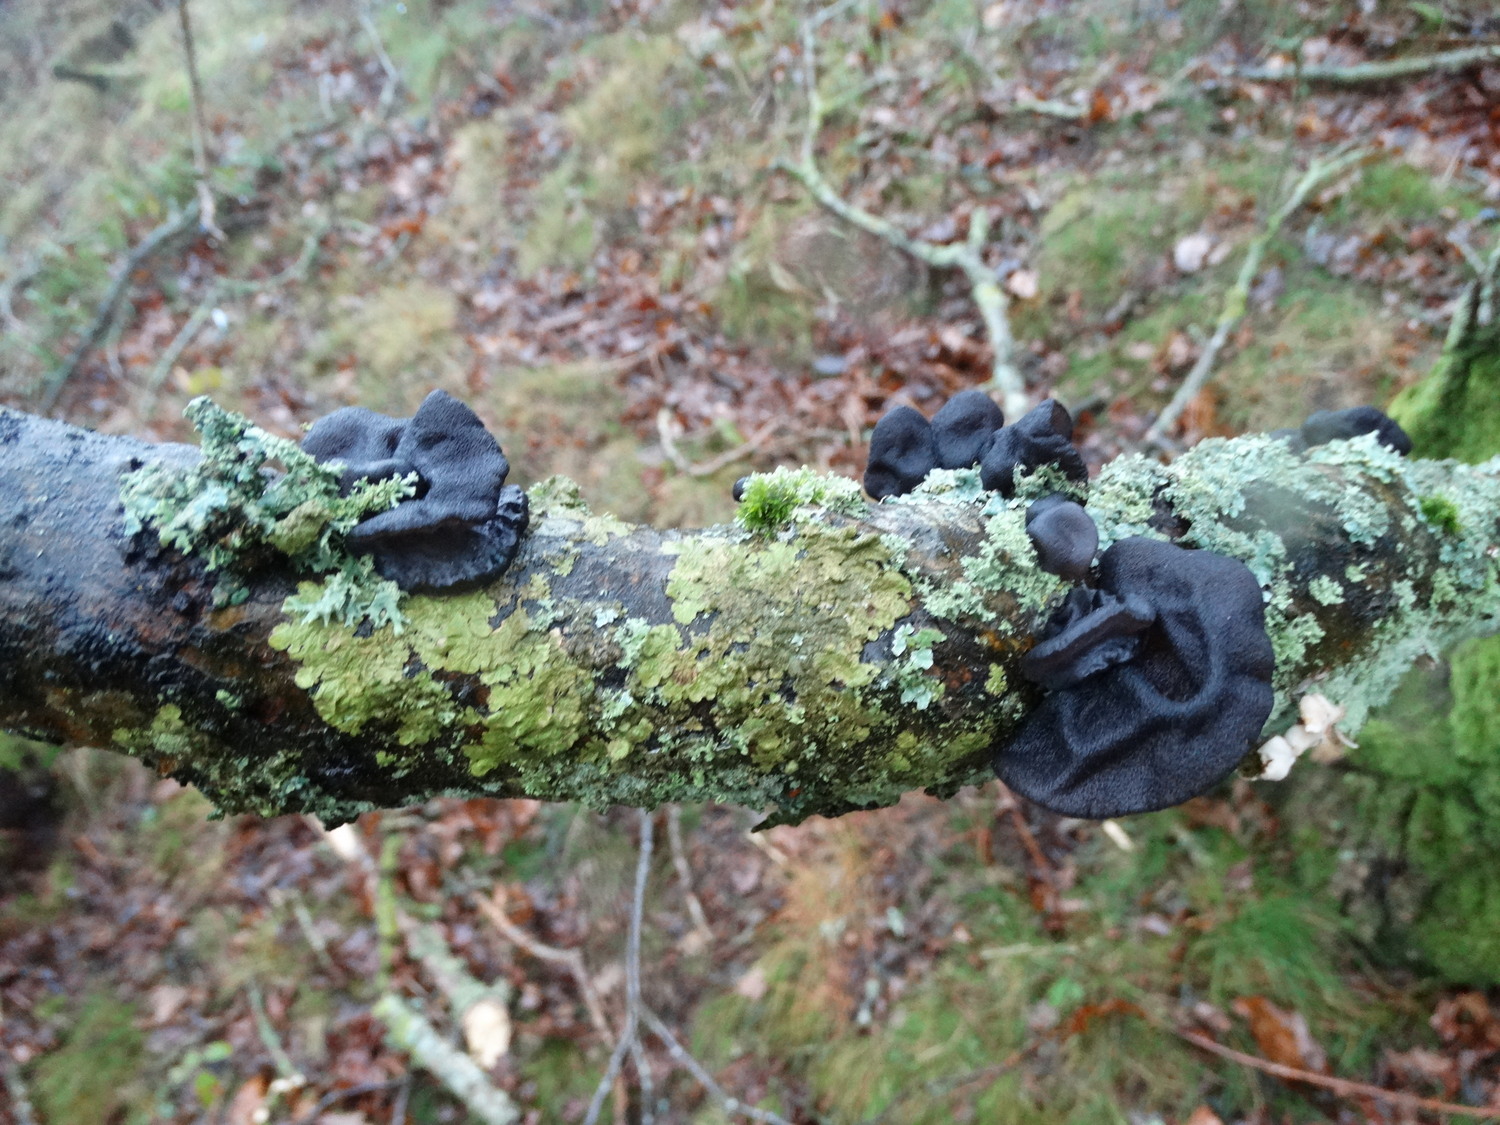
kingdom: Fungi
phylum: Basidiomycota
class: Agaricomycetes
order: Auriculariales
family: Auriculariaceae
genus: Exidia
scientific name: Exidia glandulosa
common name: ege-bævretop
